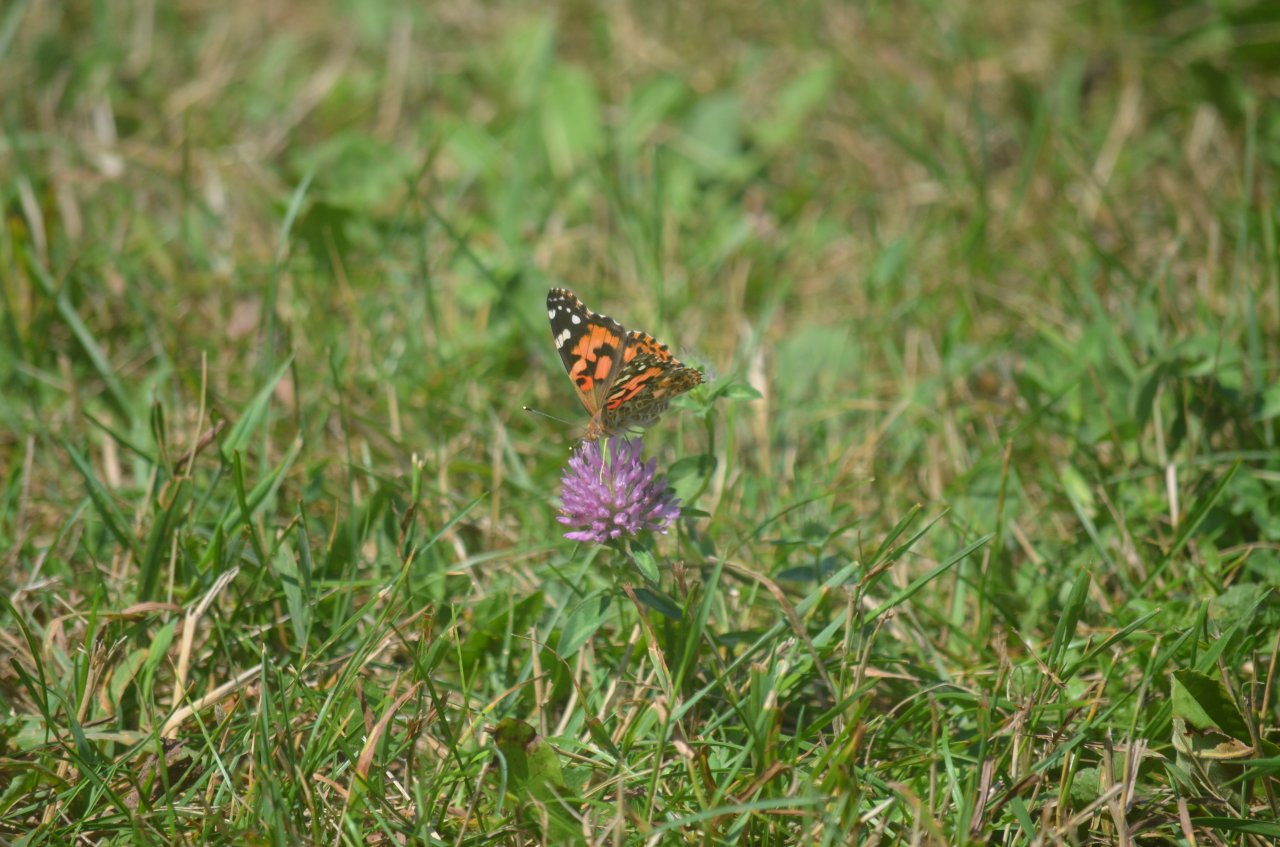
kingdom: Animalia
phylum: Arthropoda
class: Insecta
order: Lepidoptera
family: Nymphalidae
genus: Vanessa
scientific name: Vanessa cardui
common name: Painted Lady
